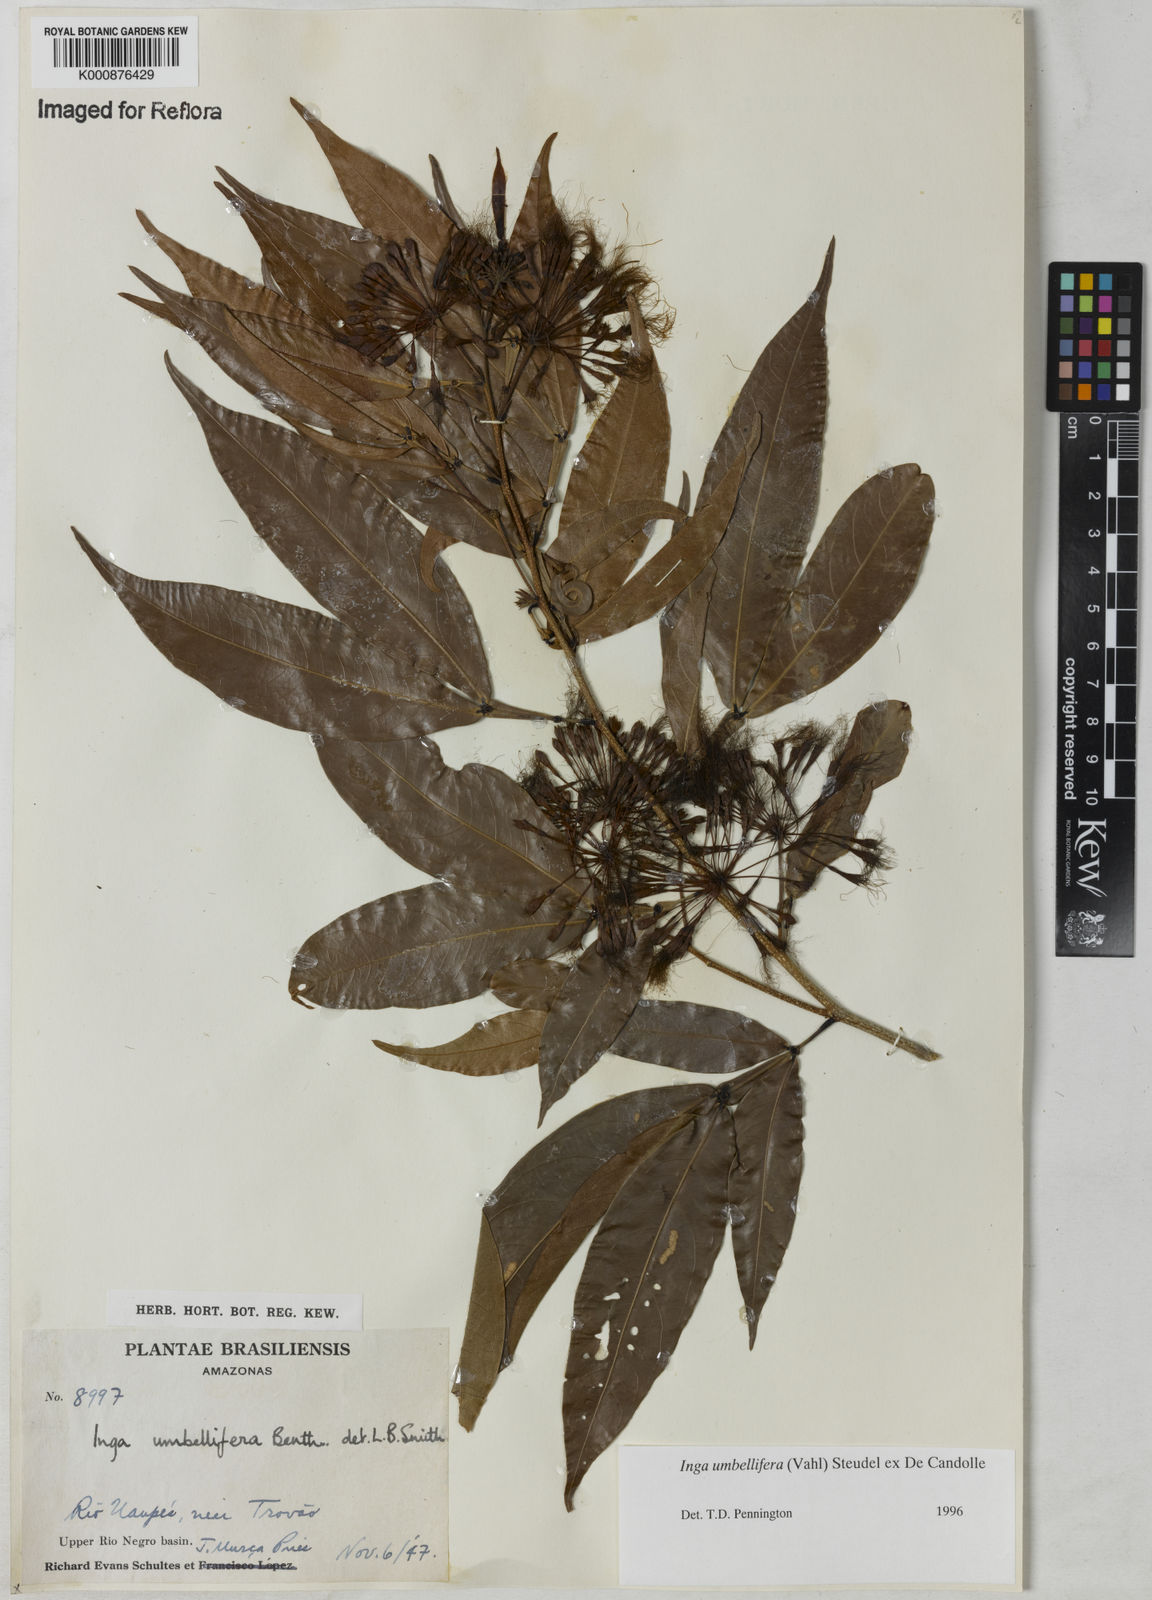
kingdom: Plantae
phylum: Tracheophyta
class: Magnoliopsida
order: Fabales
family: Fabaceae
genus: Inga
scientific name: Inga umbellifera
